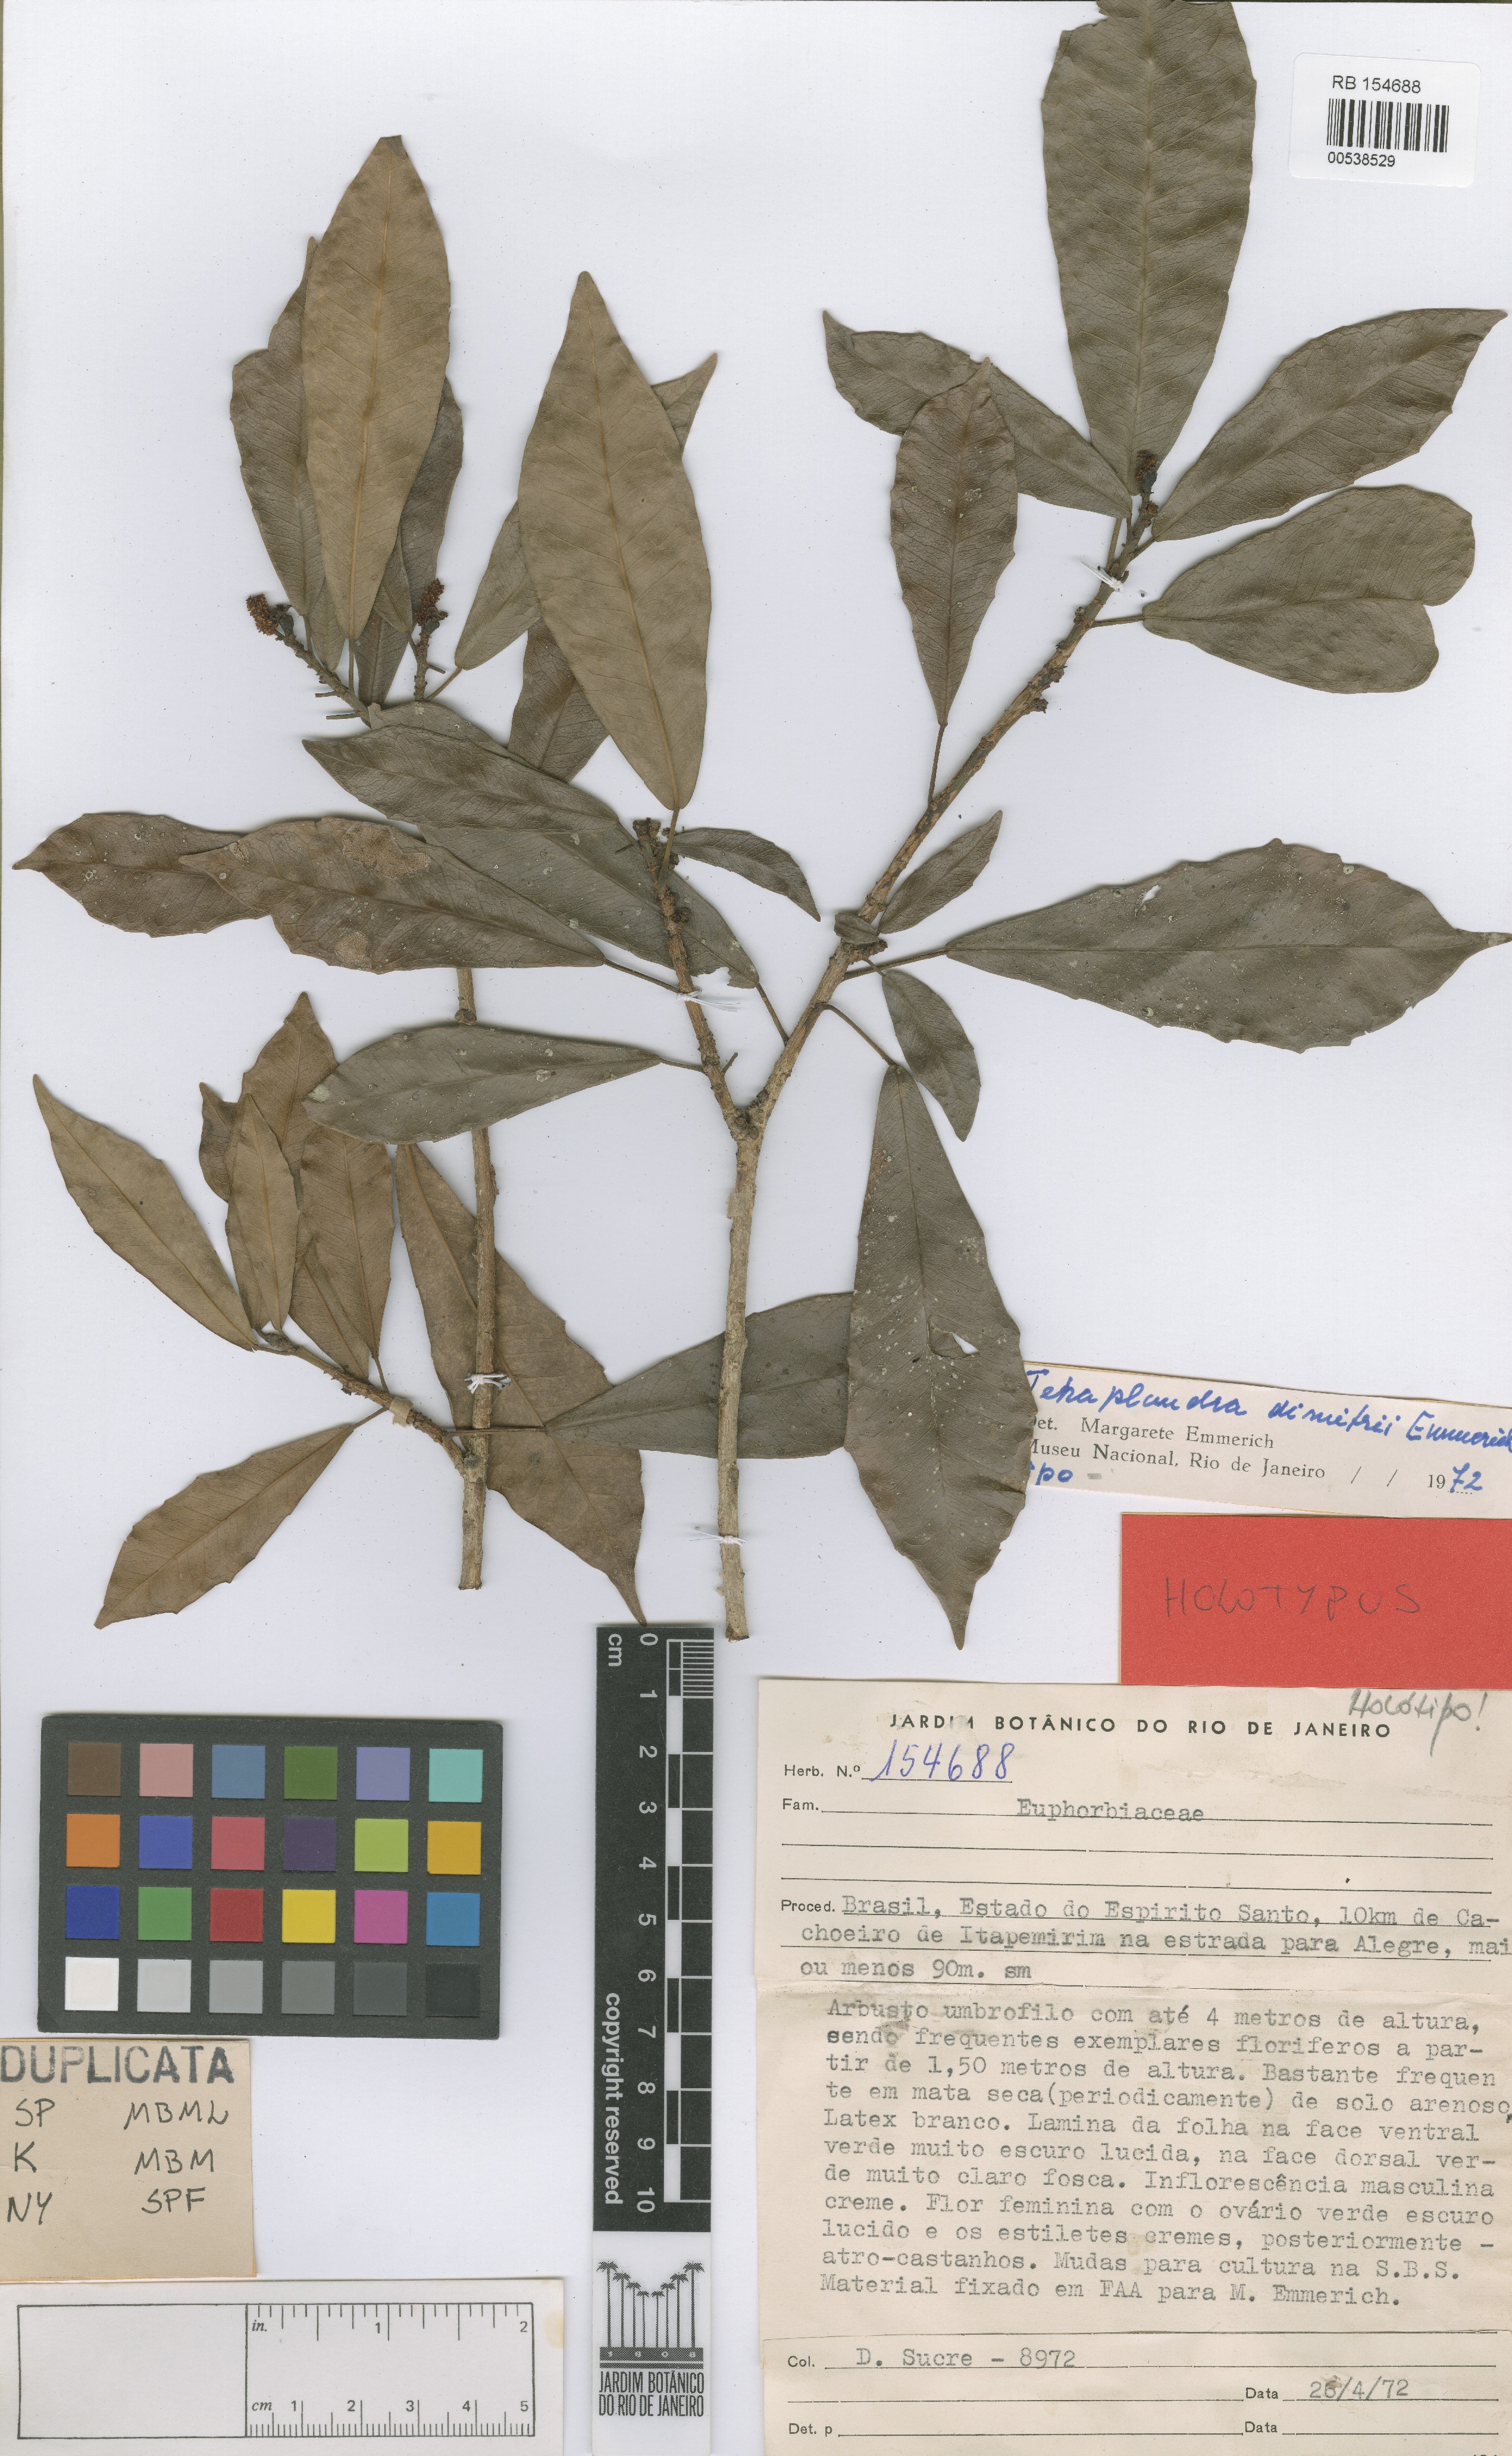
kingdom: Plantae
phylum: Tracheophyta
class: Magnoliopsida
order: Malpighiales
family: Euphorbiaceae
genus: Algernonia
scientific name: Algernonia dimitrii
